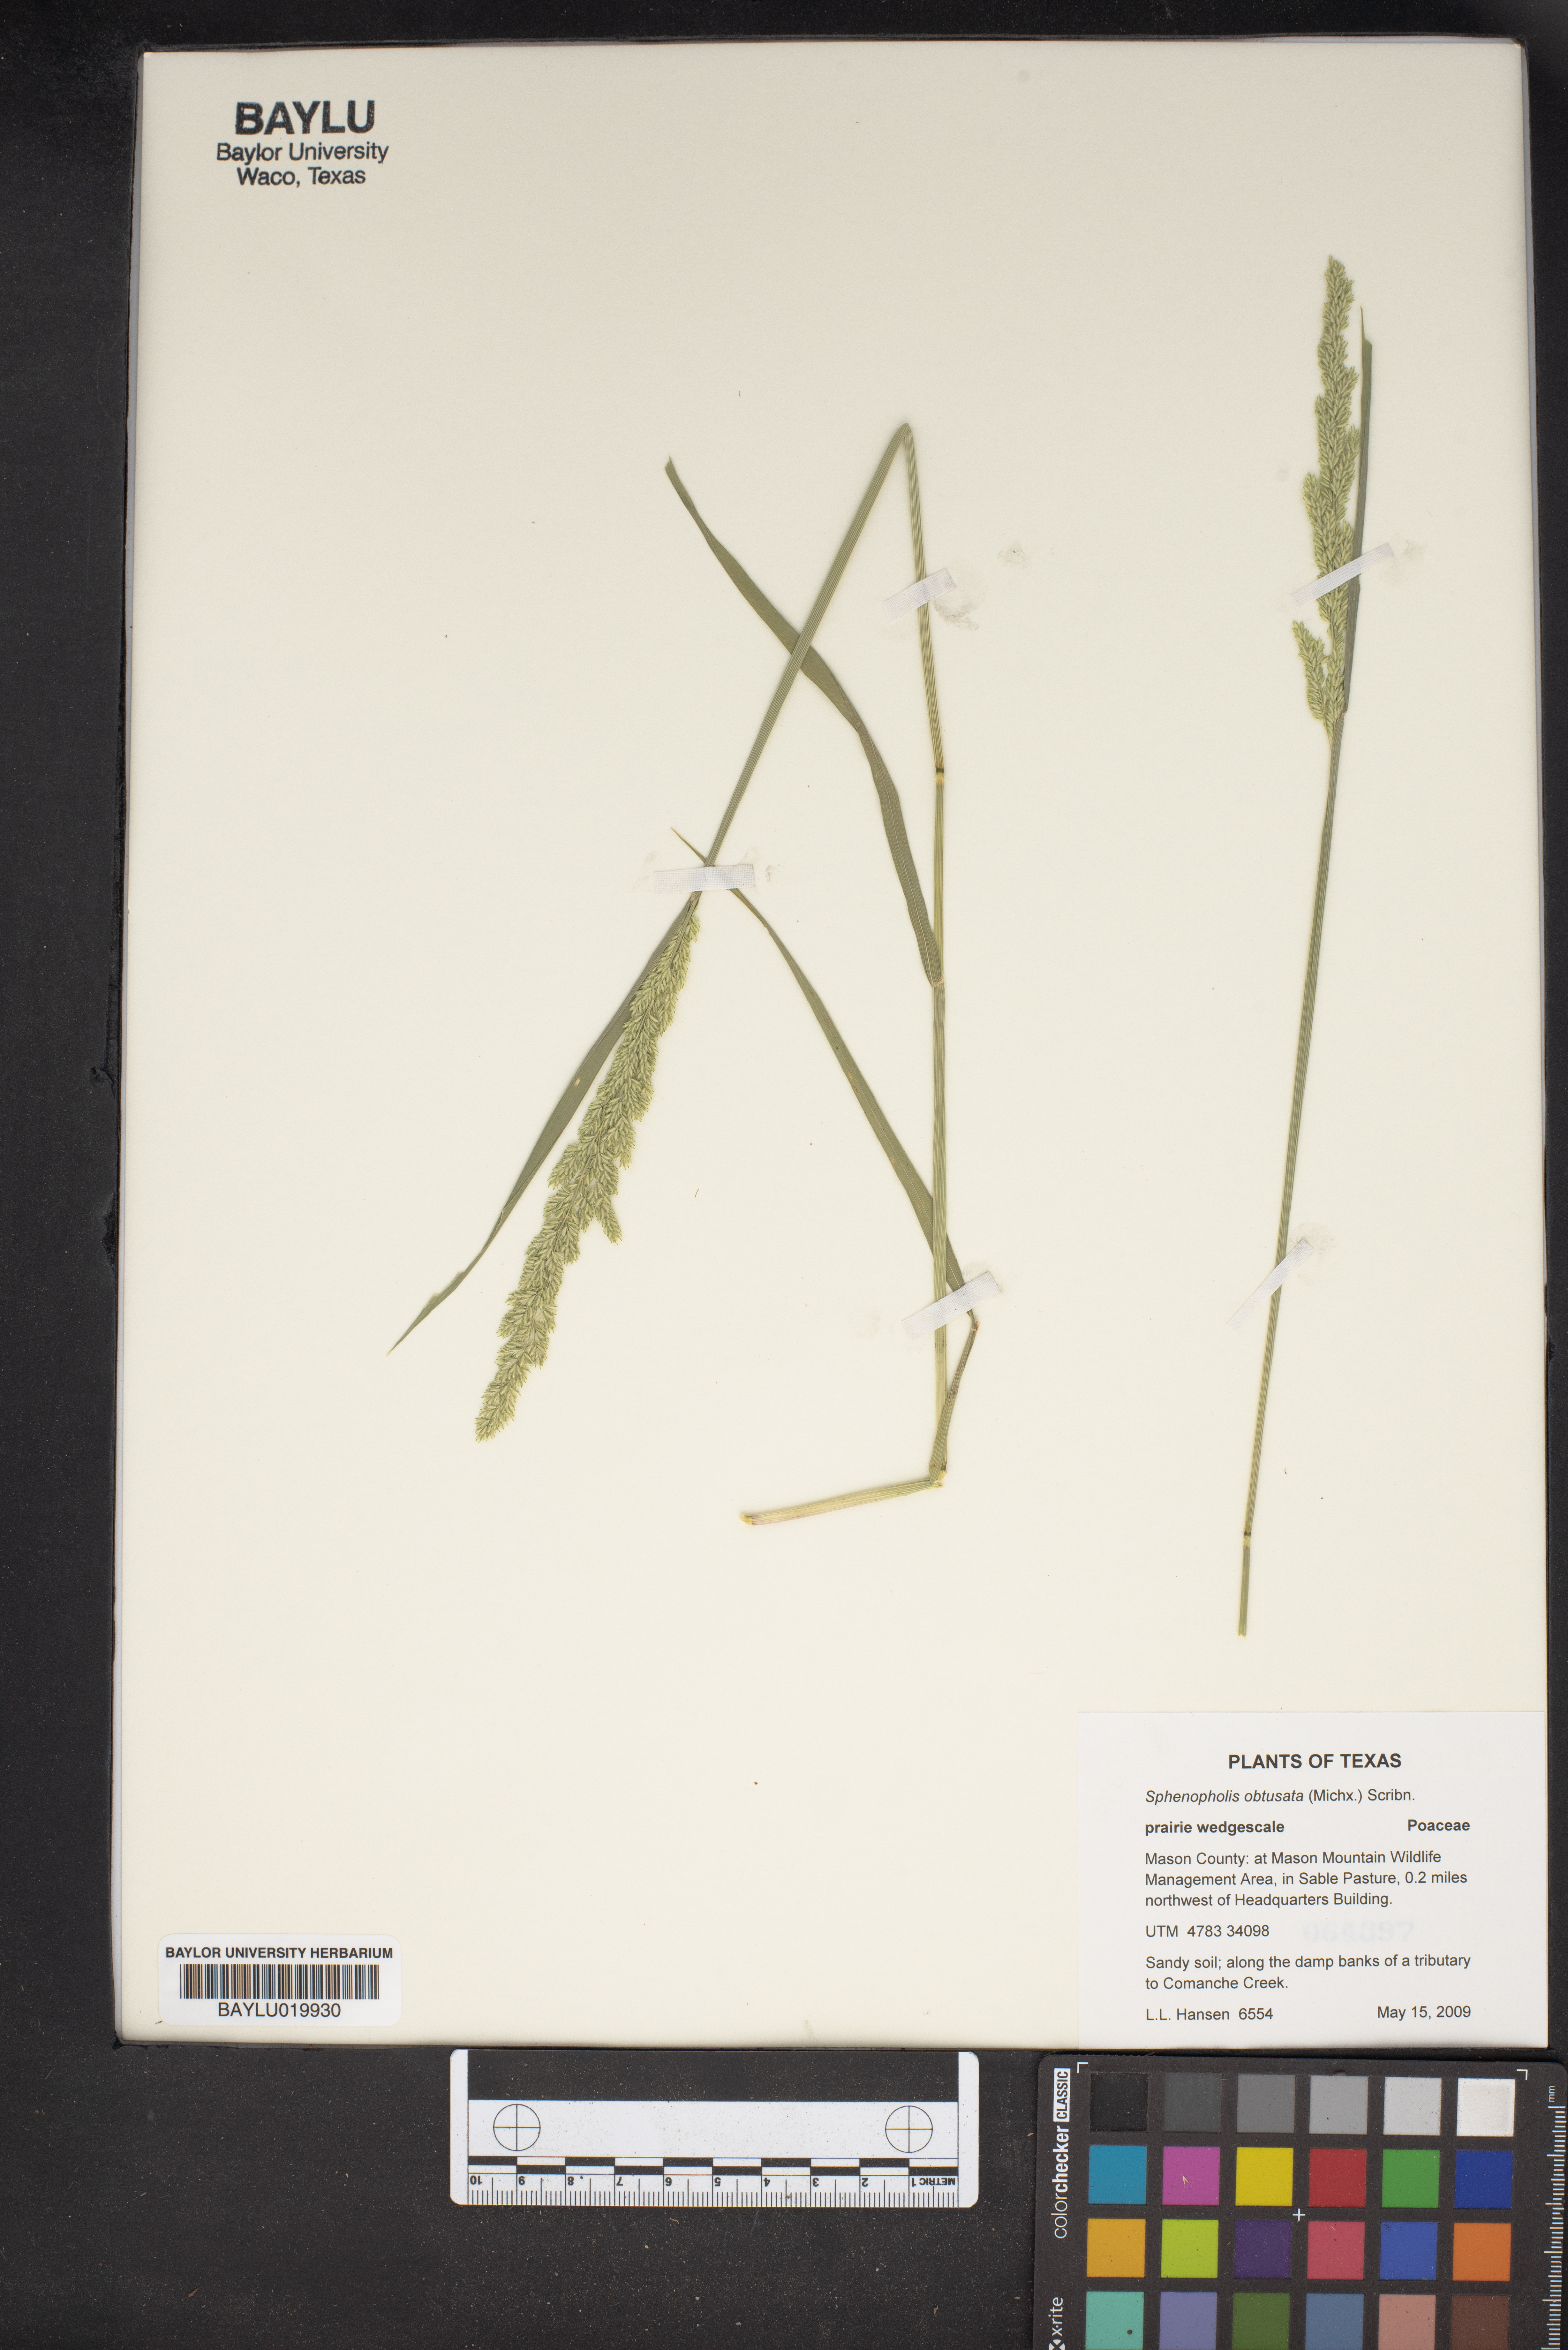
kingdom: Plantae
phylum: Tracheophyta
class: Liliopsida
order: Poales
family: Poaceae
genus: Sphenopholis
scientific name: Sphenopholis obtusata
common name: Prairie grass
